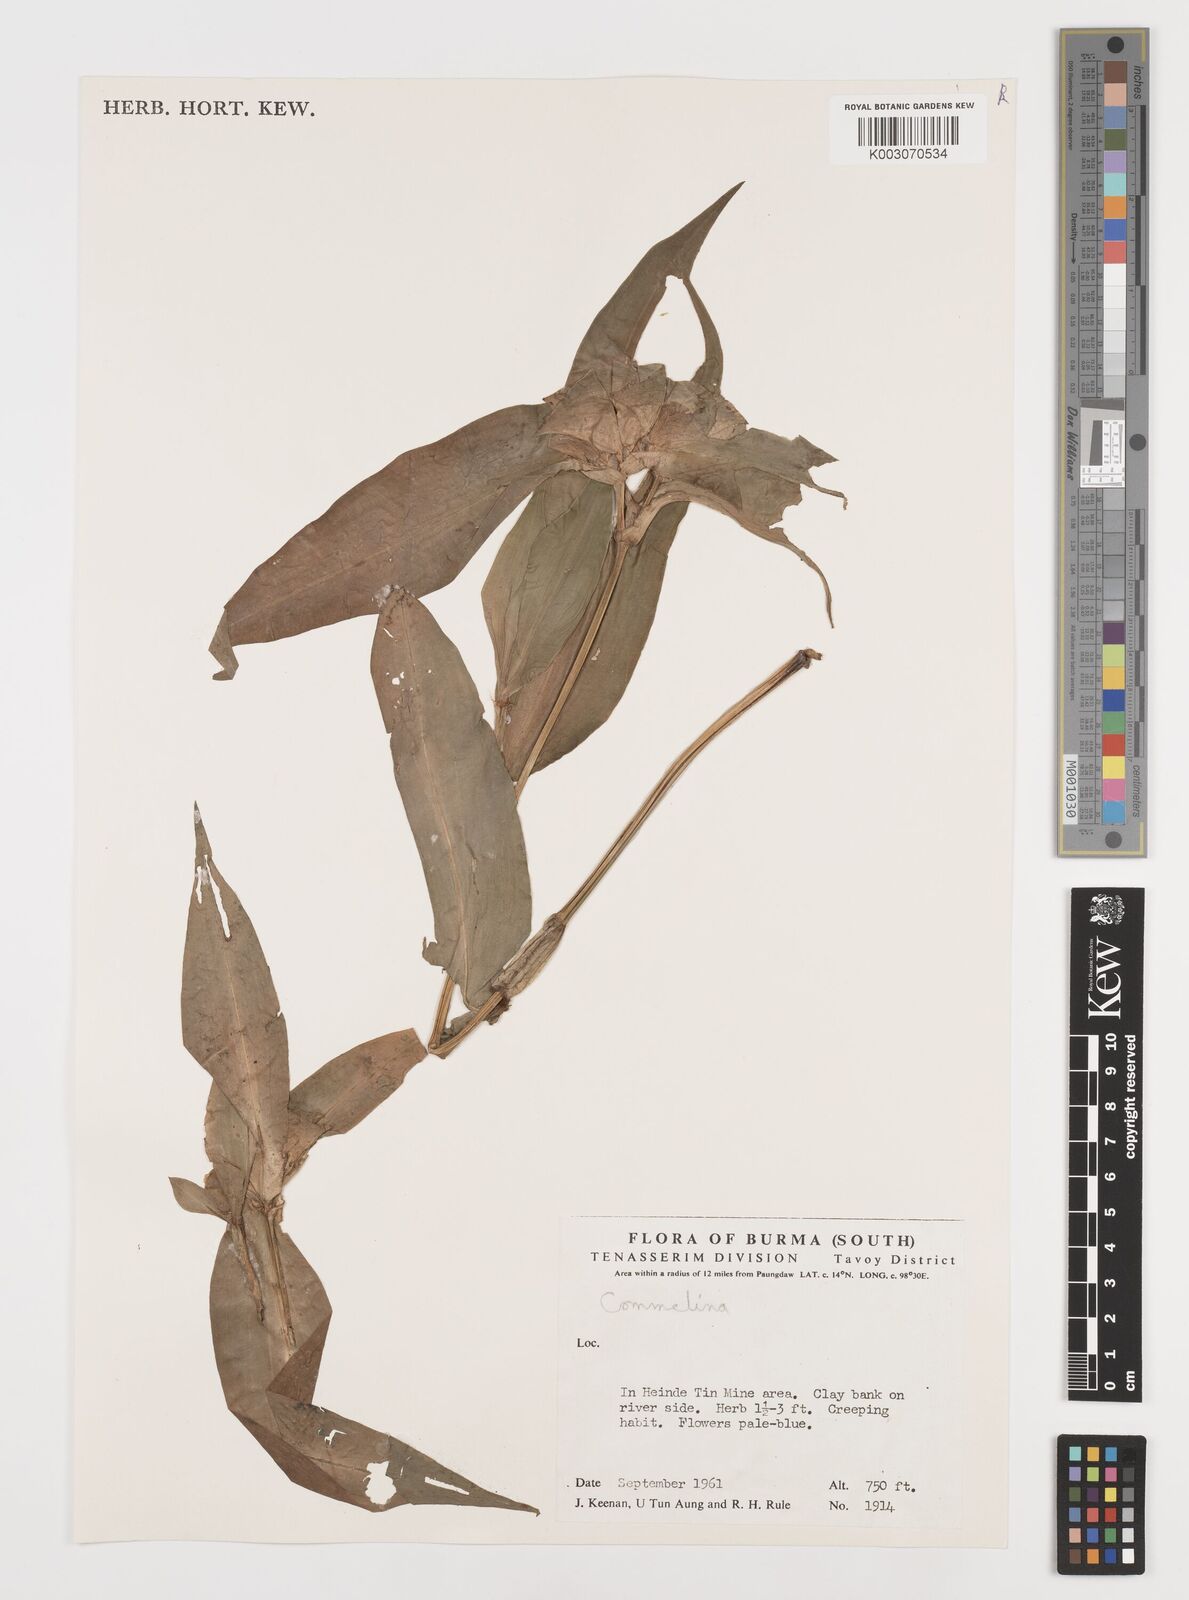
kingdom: Plantae
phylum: Tracheophyta
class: Liliopsida
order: Commelinales
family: Commelinaceae
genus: Commelina
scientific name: Commelina
